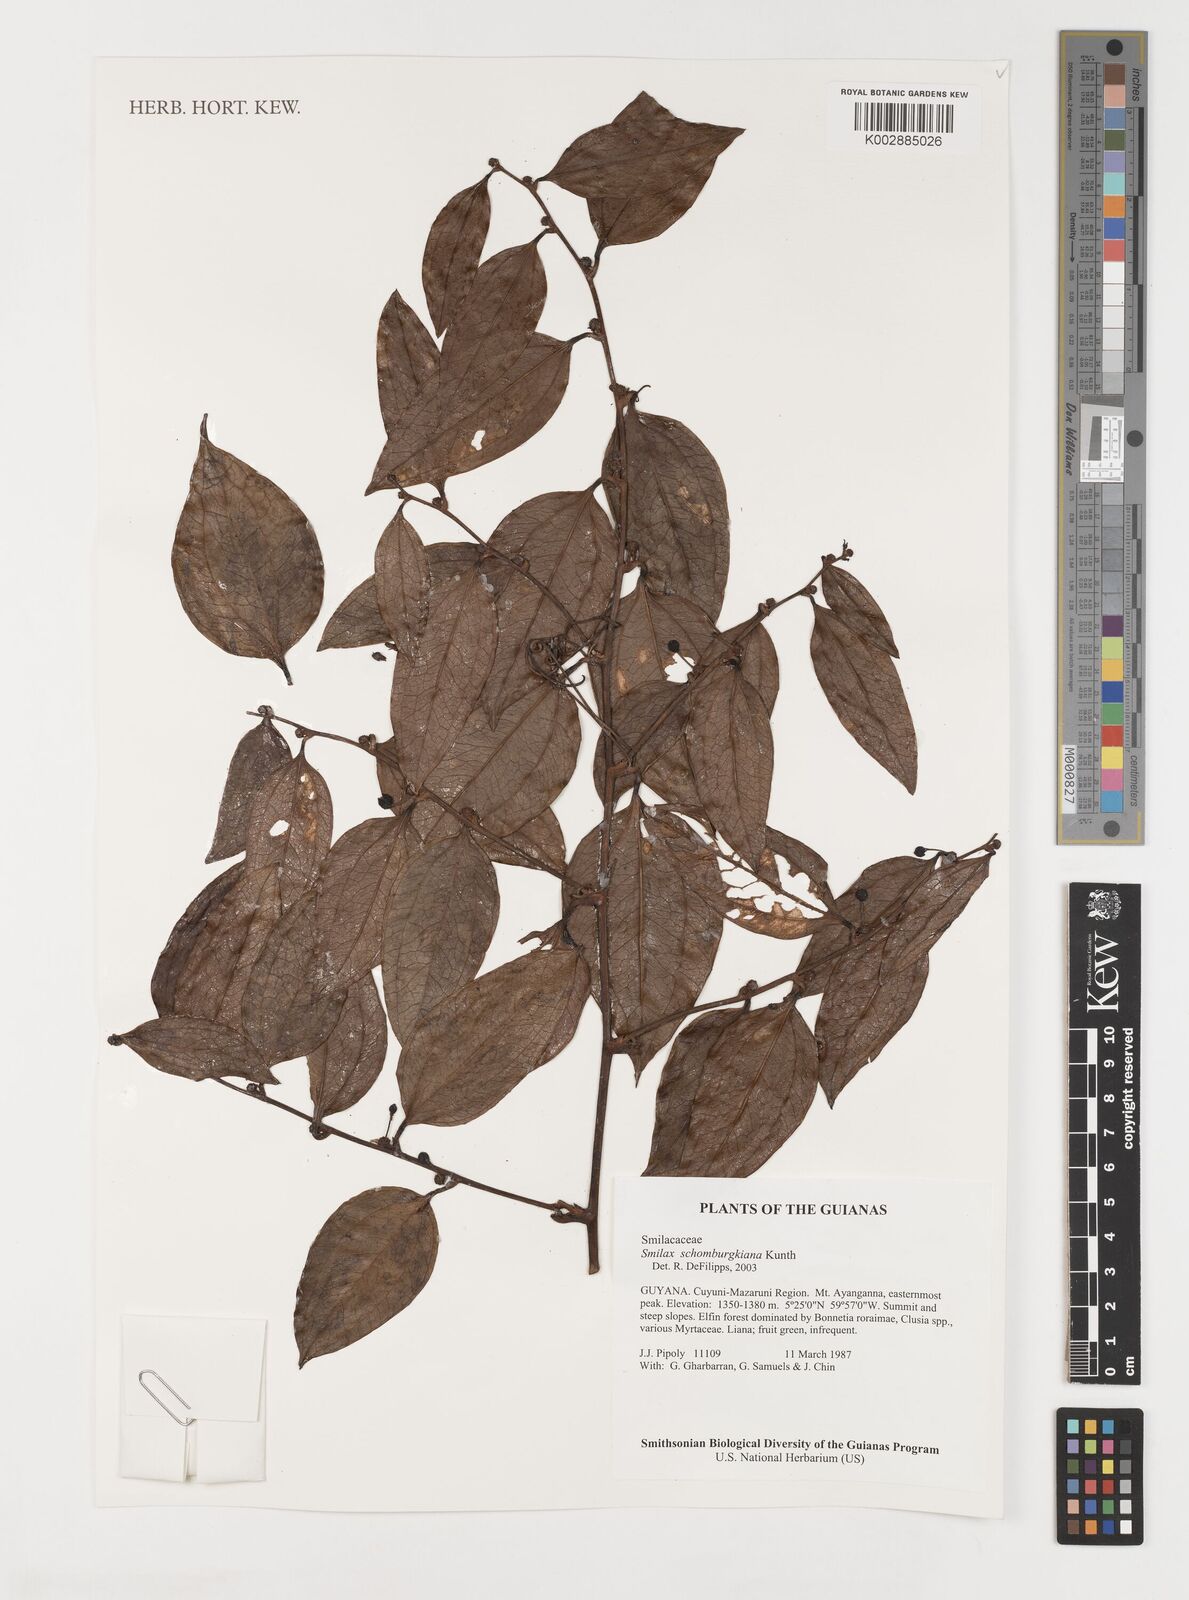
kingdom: Plantae
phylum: Tracheophyta
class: Liliopsida
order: Liliales
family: Smilacaceae
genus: Smilax
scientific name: Smilax schomburgkiana
